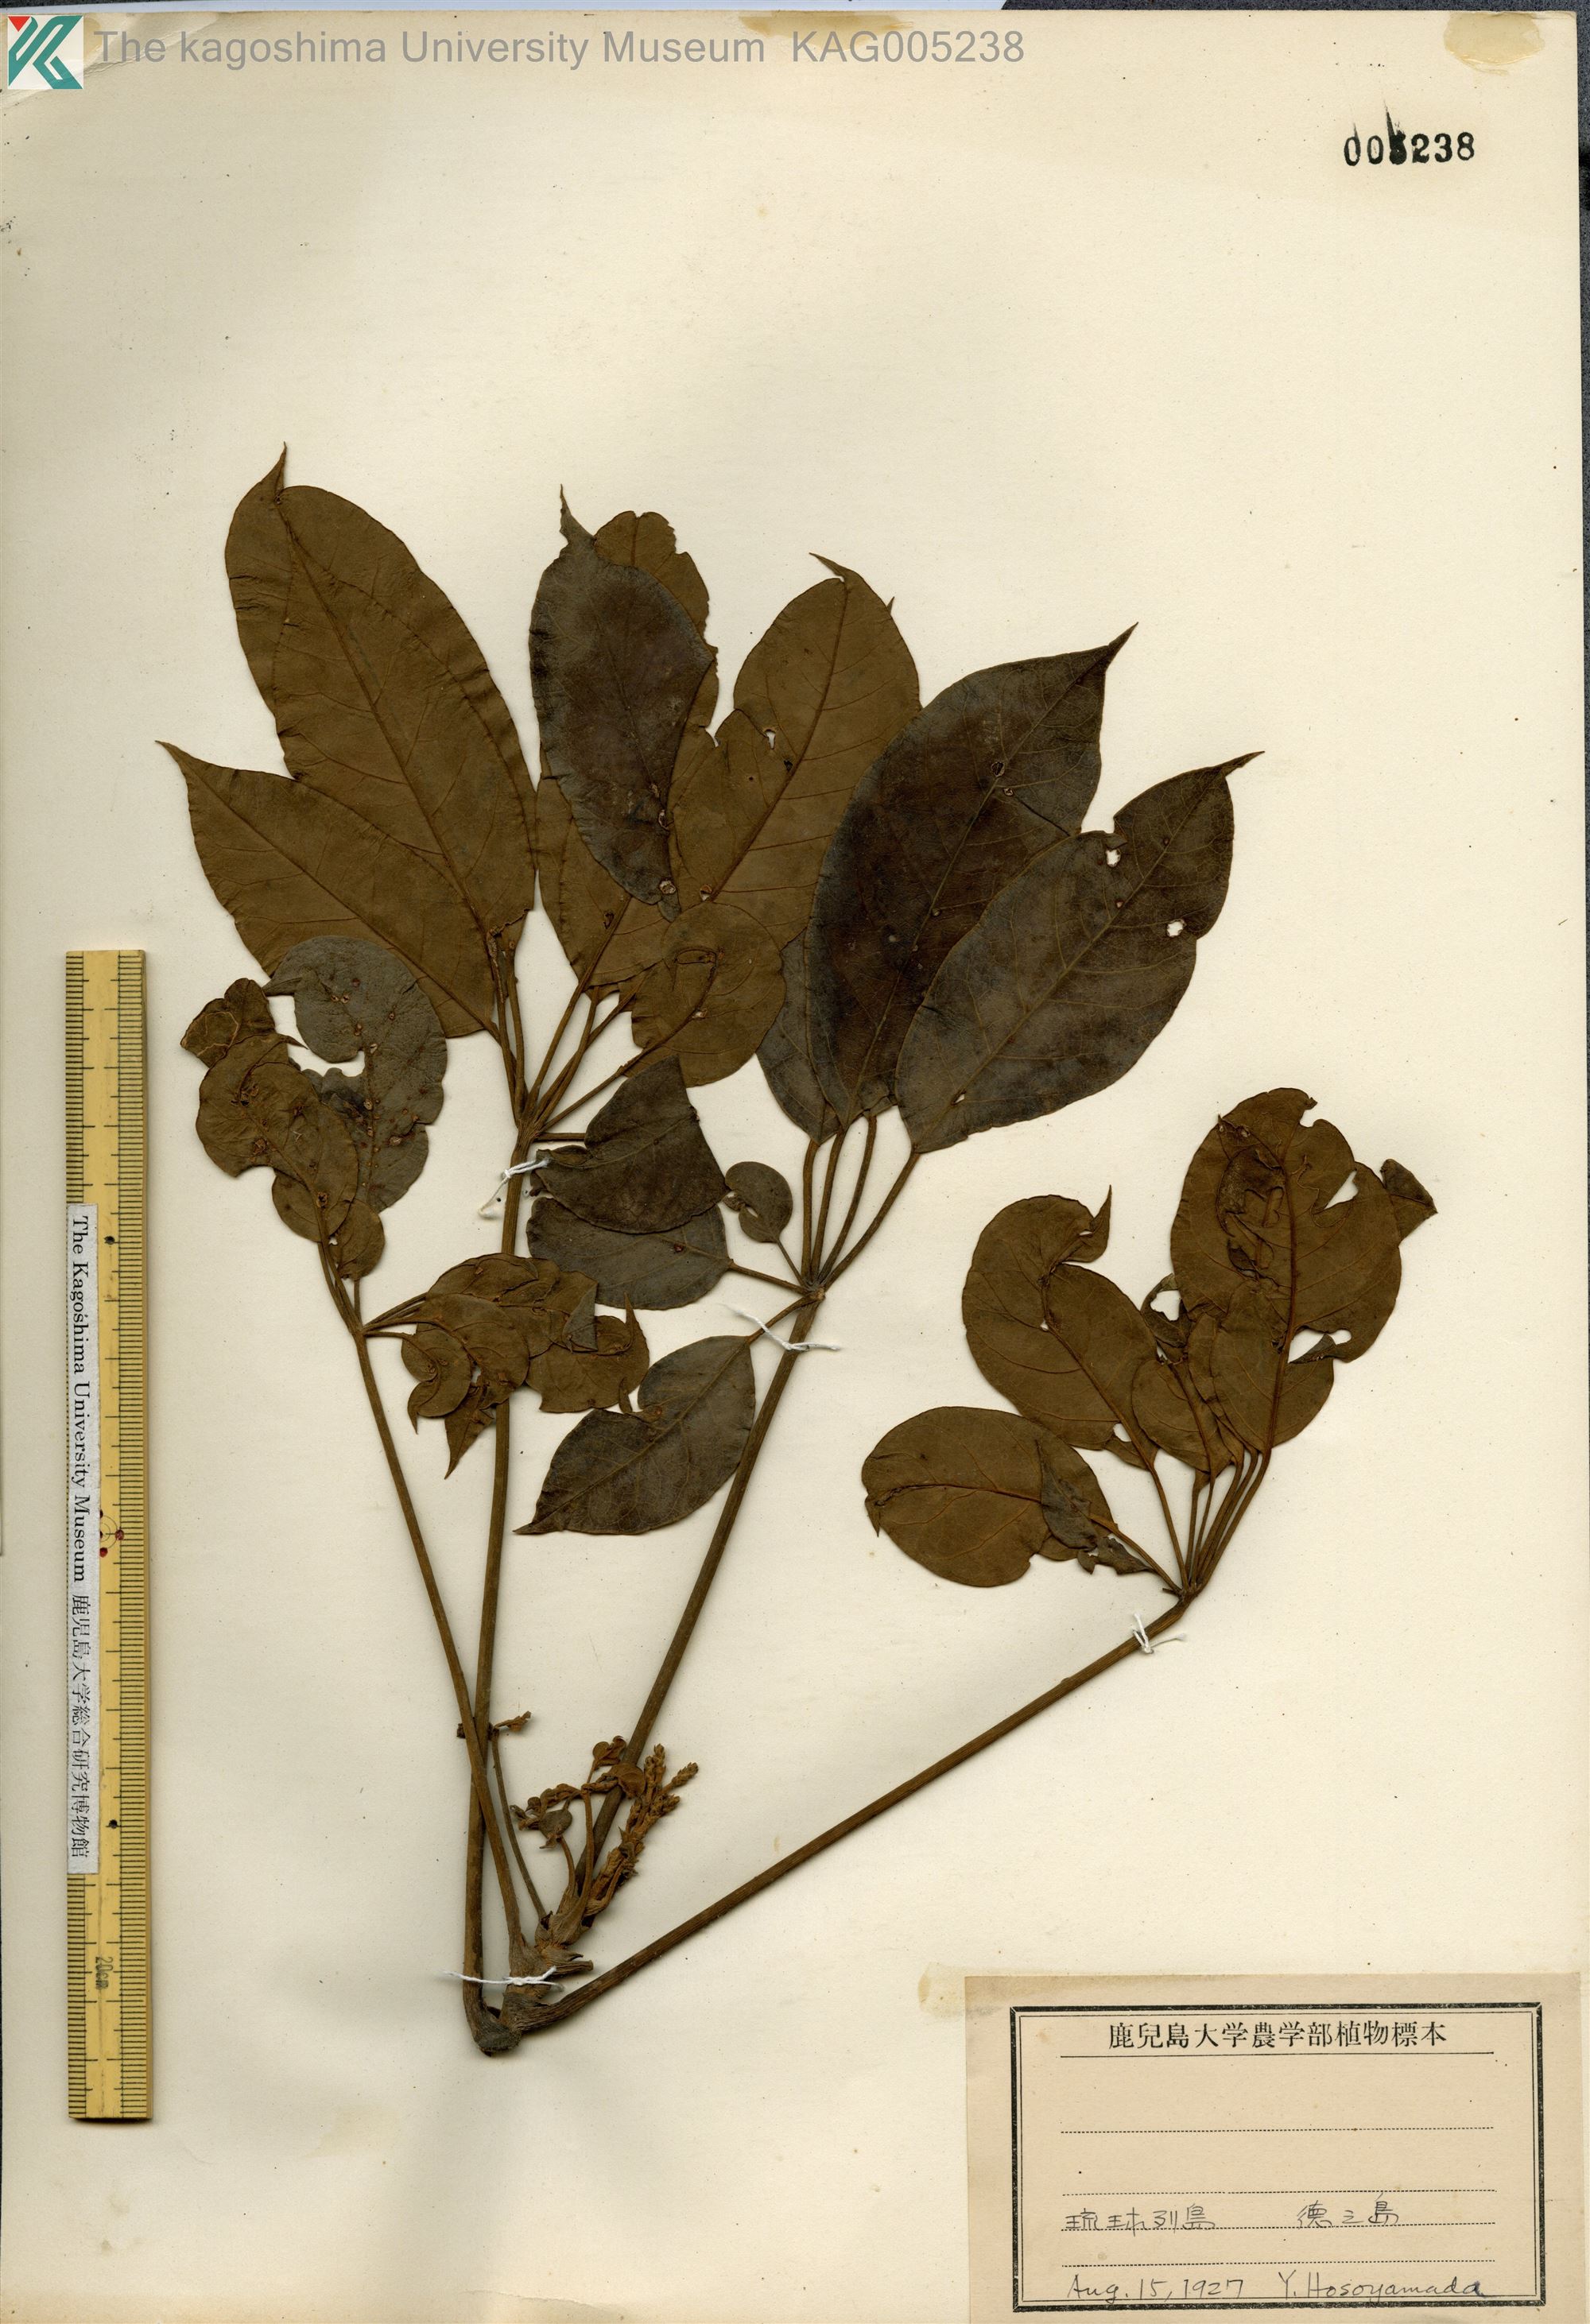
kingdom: Plantae
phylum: Tracheophyta
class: Magnoliopsida
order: Apiales
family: Araliaceae
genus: Heptapleurum
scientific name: Heptapleurum heptaphyllum
